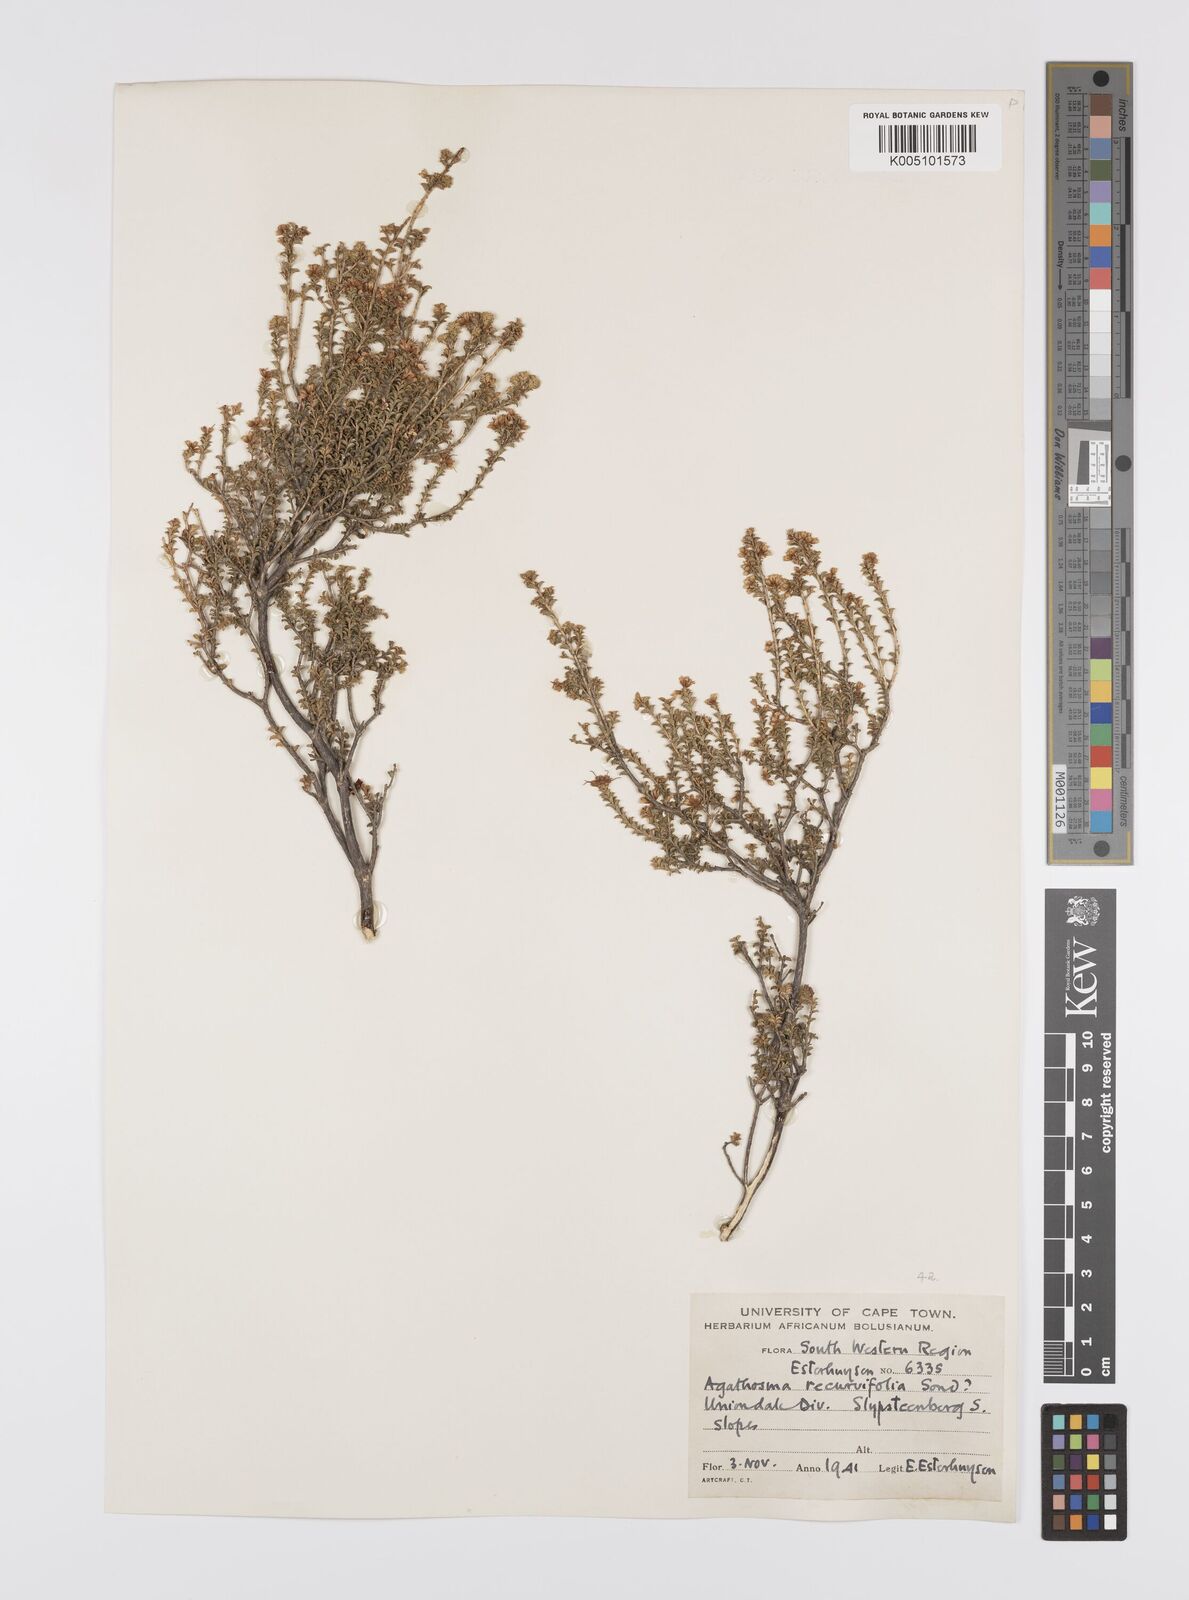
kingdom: Plantae
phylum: Tracheophyta
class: Magnoliopsida
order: Sapindales
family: Rutaceae
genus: Agathosma
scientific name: Agathosma recurvifolia
